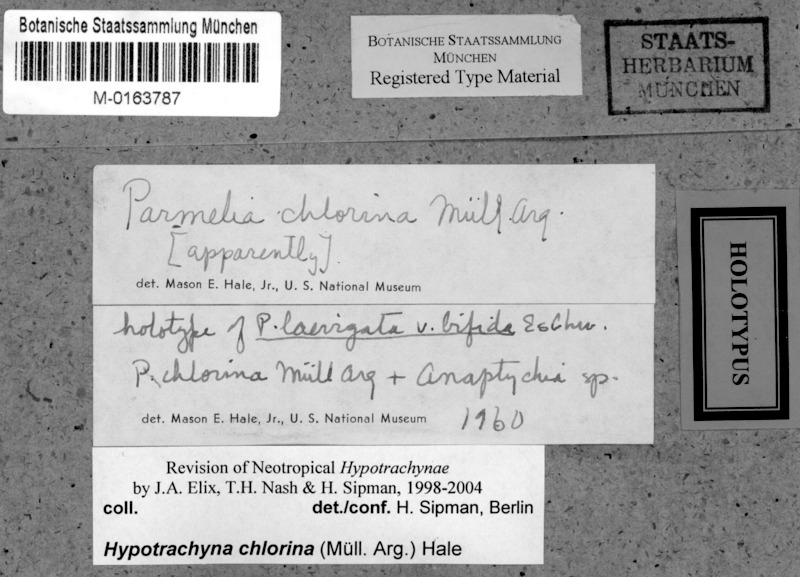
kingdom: Fungi
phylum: Ascomycota
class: Lecanoromycetes
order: Lecanorales
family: Parmeliaceae
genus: Hypotrachyna
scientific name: Hypotrachyna chlorina
